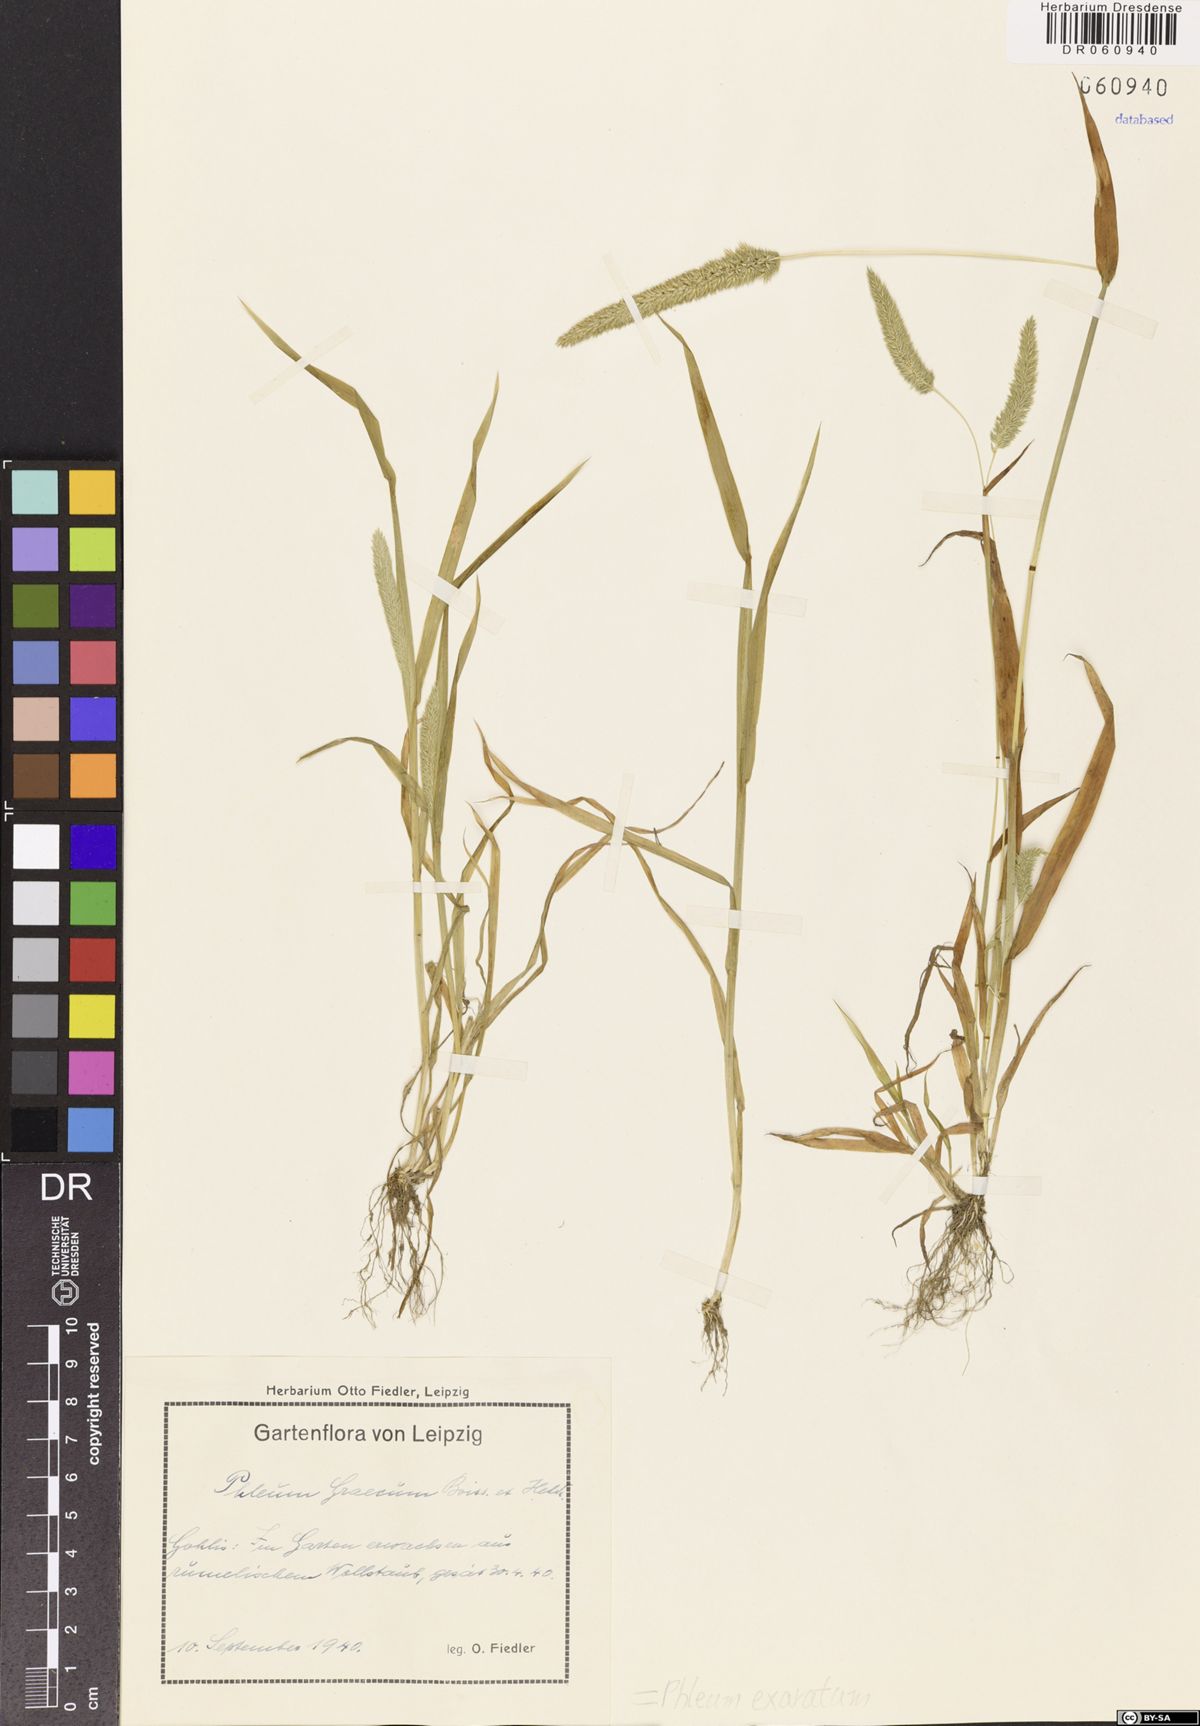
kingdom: Plantae
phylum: Tracheophyta
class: Liliopsida
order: Poales
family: Poaceae
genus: Phleum
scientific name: Phleum exaratum
